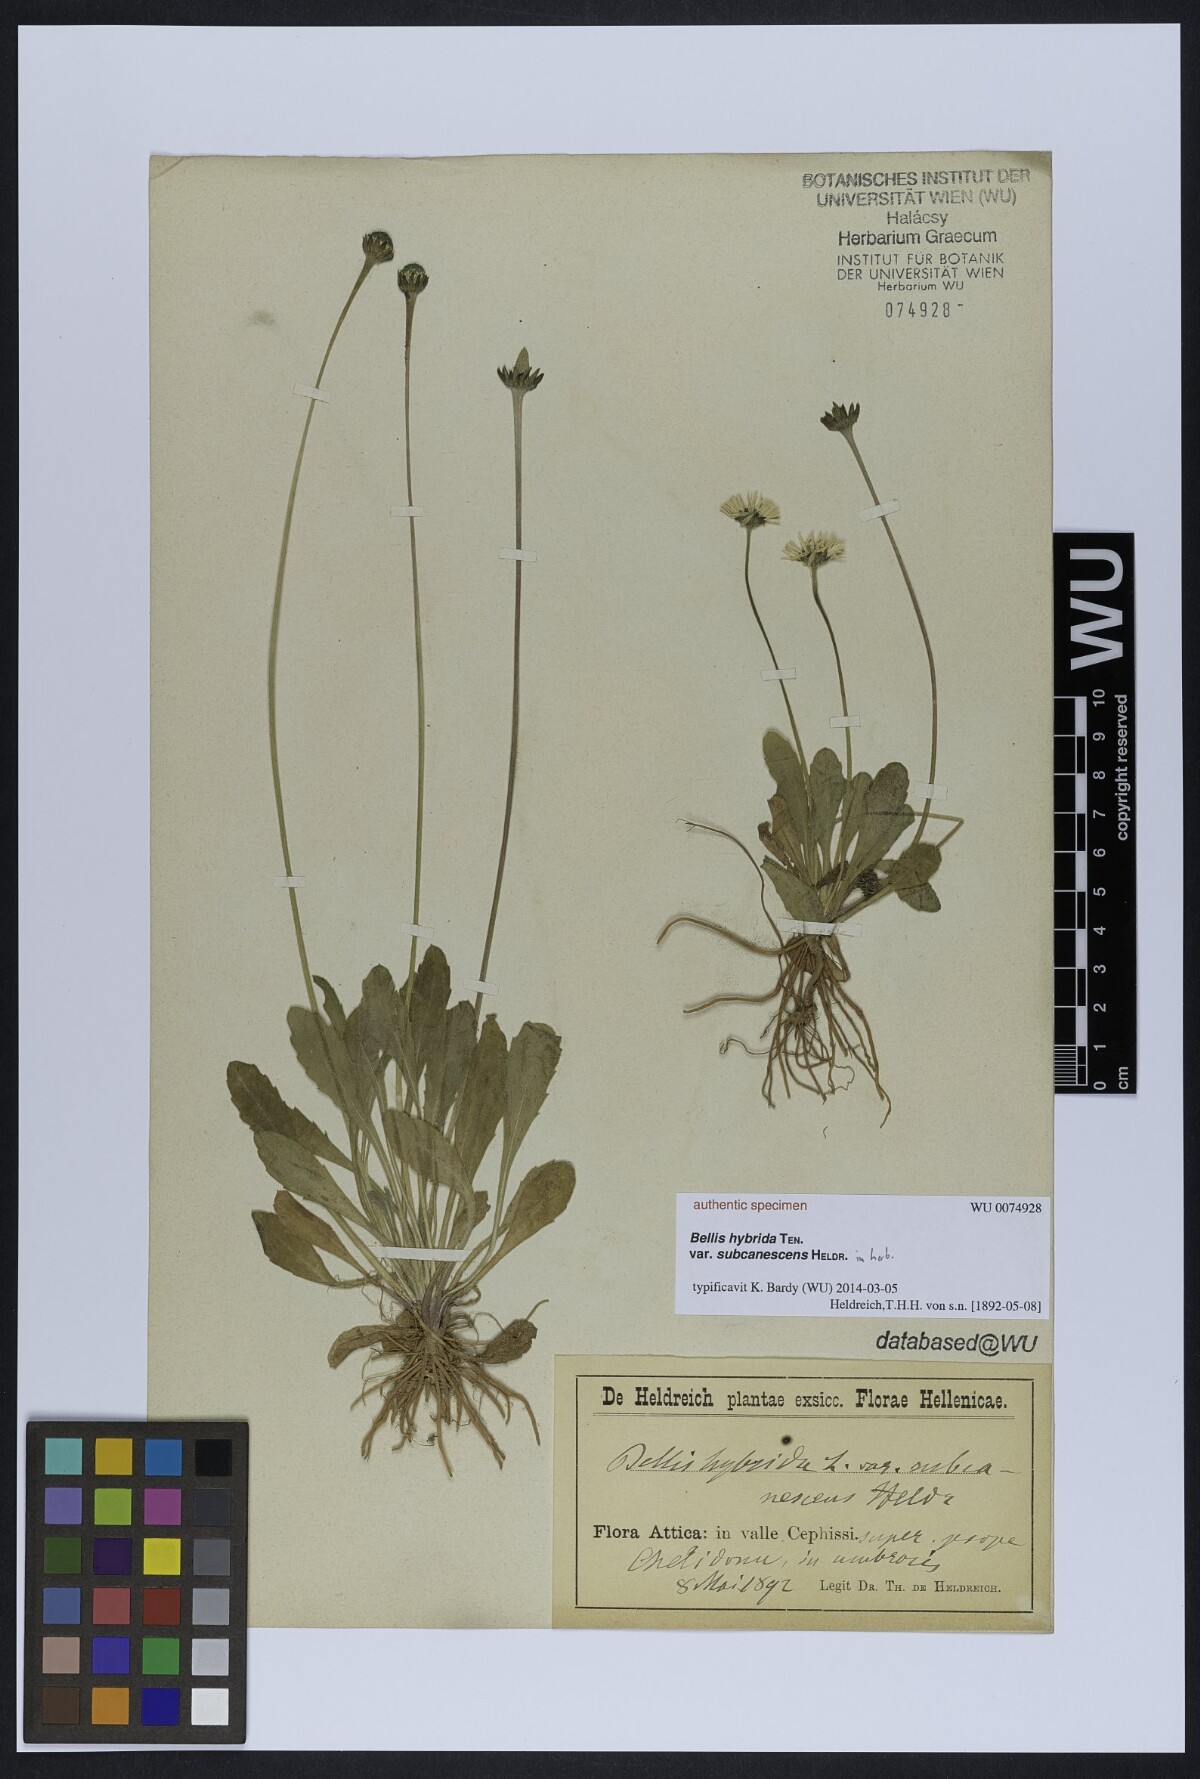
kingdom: Plantae
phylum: Tracheophyta
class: Magnoliopsida
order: Asterales
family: Asteraceae
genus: Bellis
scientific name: Bellis perennis
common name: Lawndaisy
